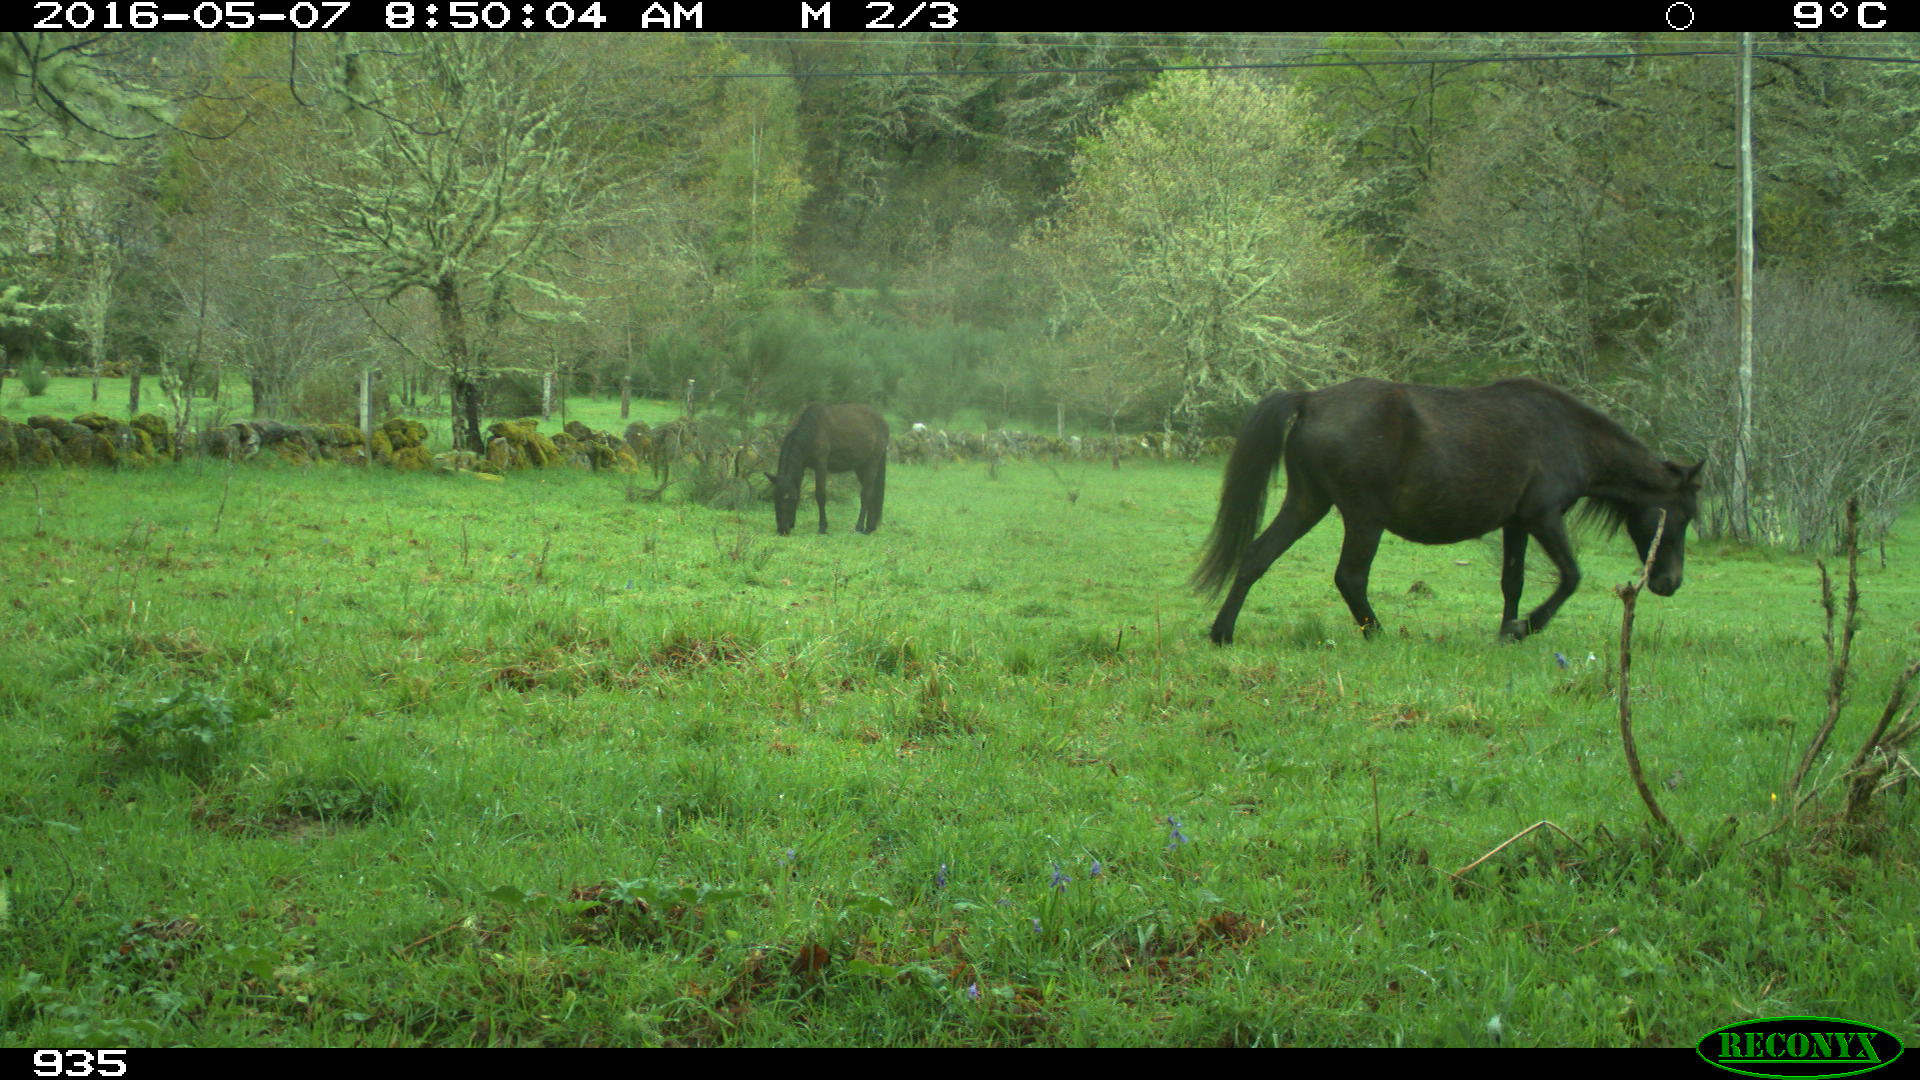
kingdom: Animalia
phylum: Chordata
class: Mammalia
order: Perissodactyla
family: Equidae
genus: Equus
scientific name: Equus caballus
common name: Horse
